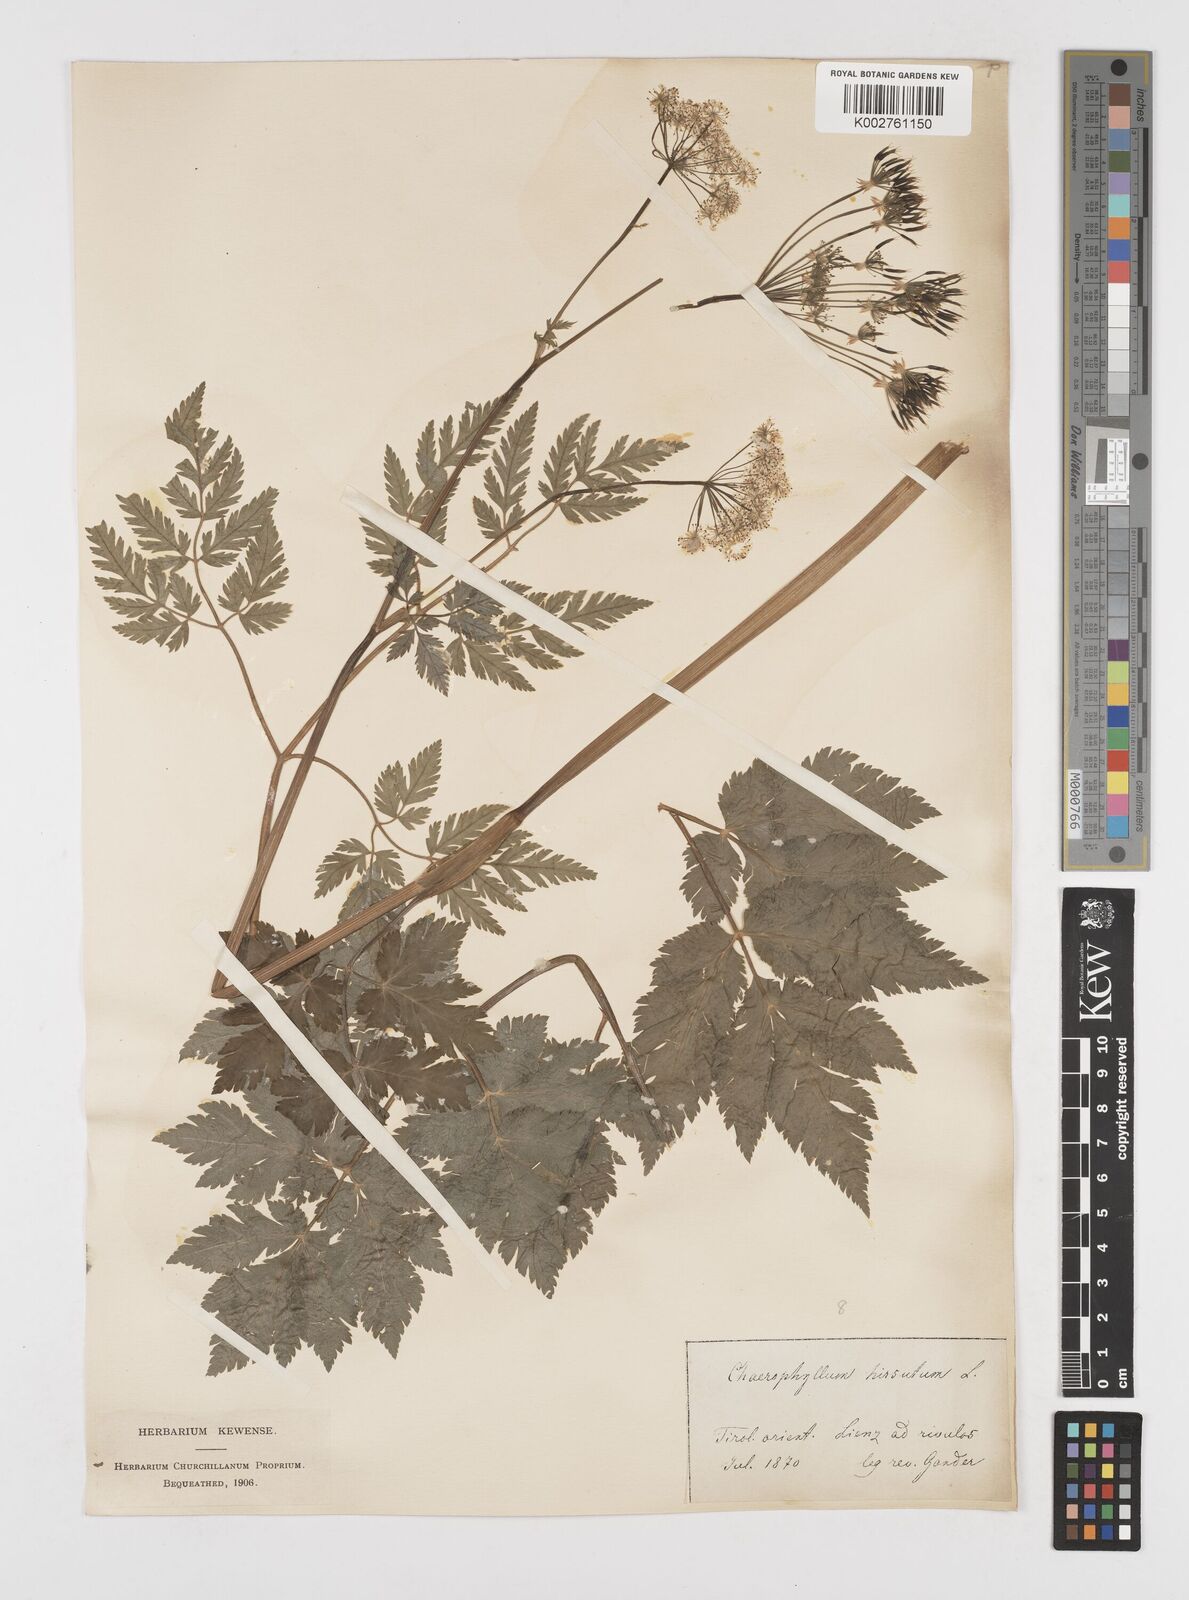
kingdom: Plantae
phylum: Tracheophyta
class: Magnoliopsida
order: Apiales
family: Apiaceae
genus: Chaerophyllum
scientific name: Chaerophyllum hirsutum
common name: Hairy chervil
